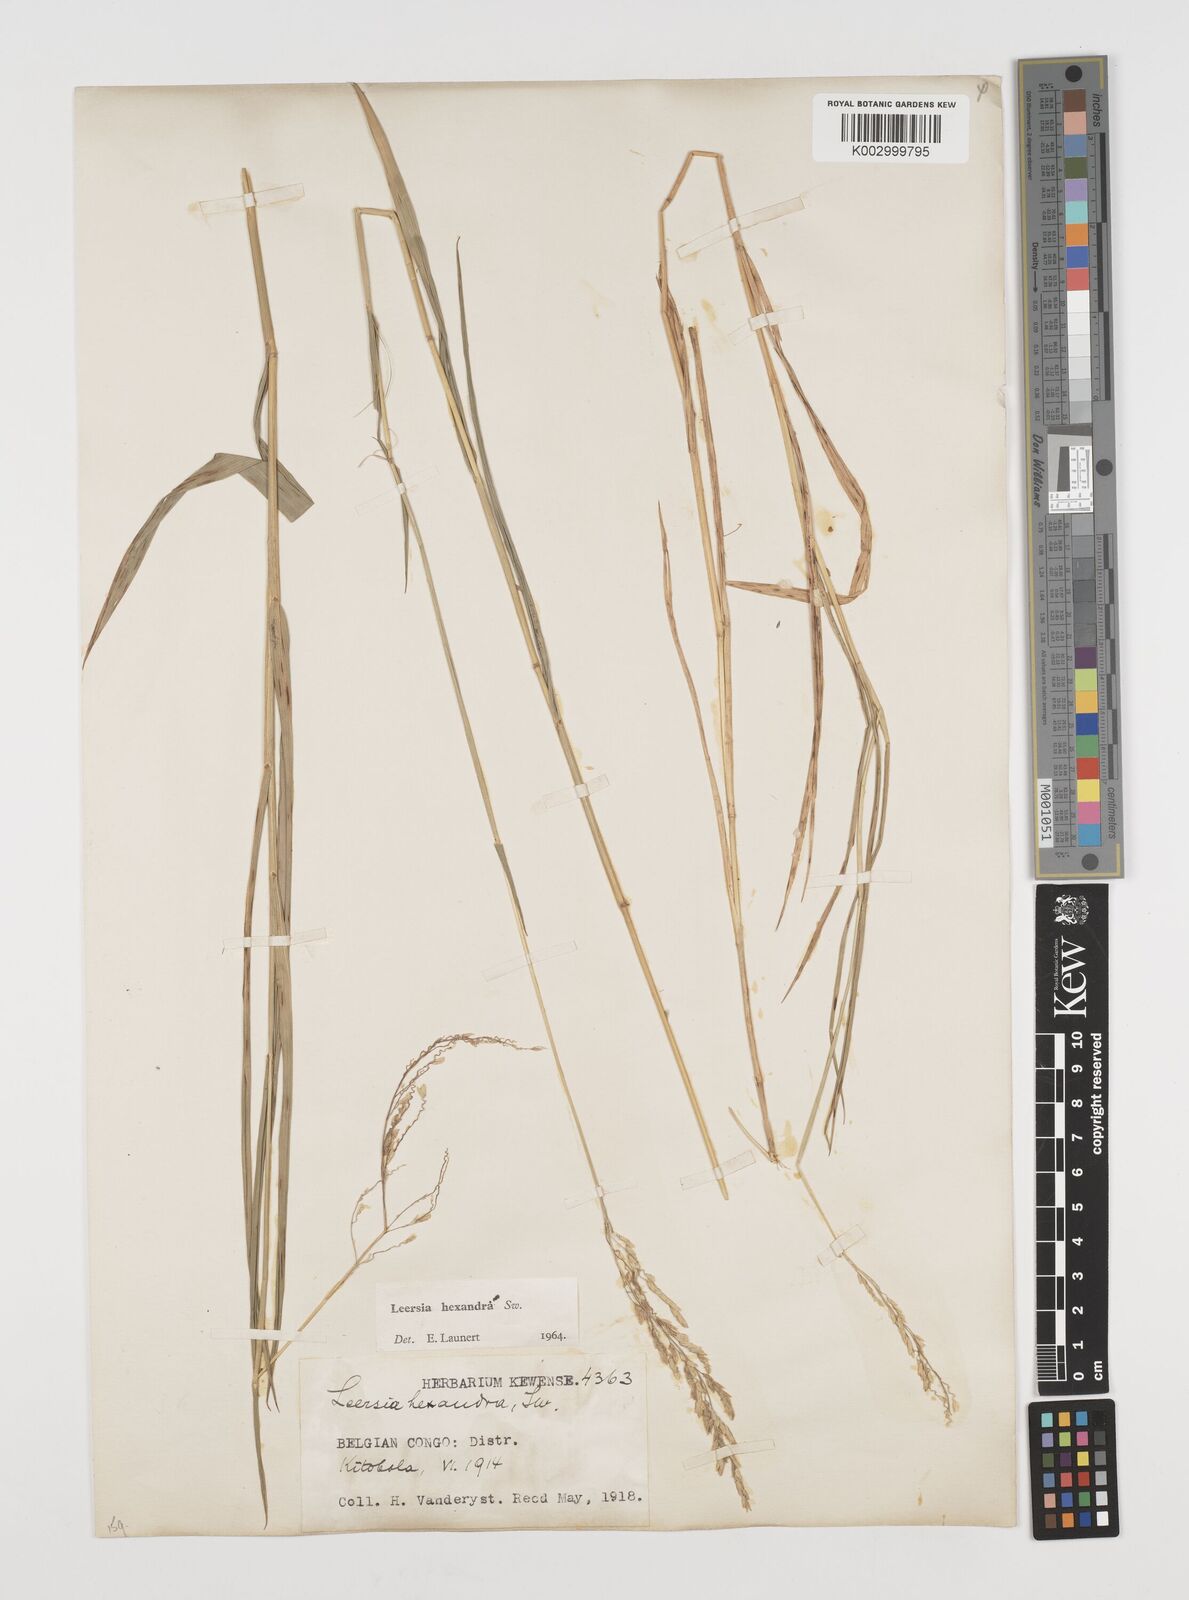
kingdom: Plantae
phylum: Tracheophyta
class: Liliopsida
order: Poales
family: Poaceae
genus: Leersia
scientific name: Leersia hexandra
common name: Southern cut grass
